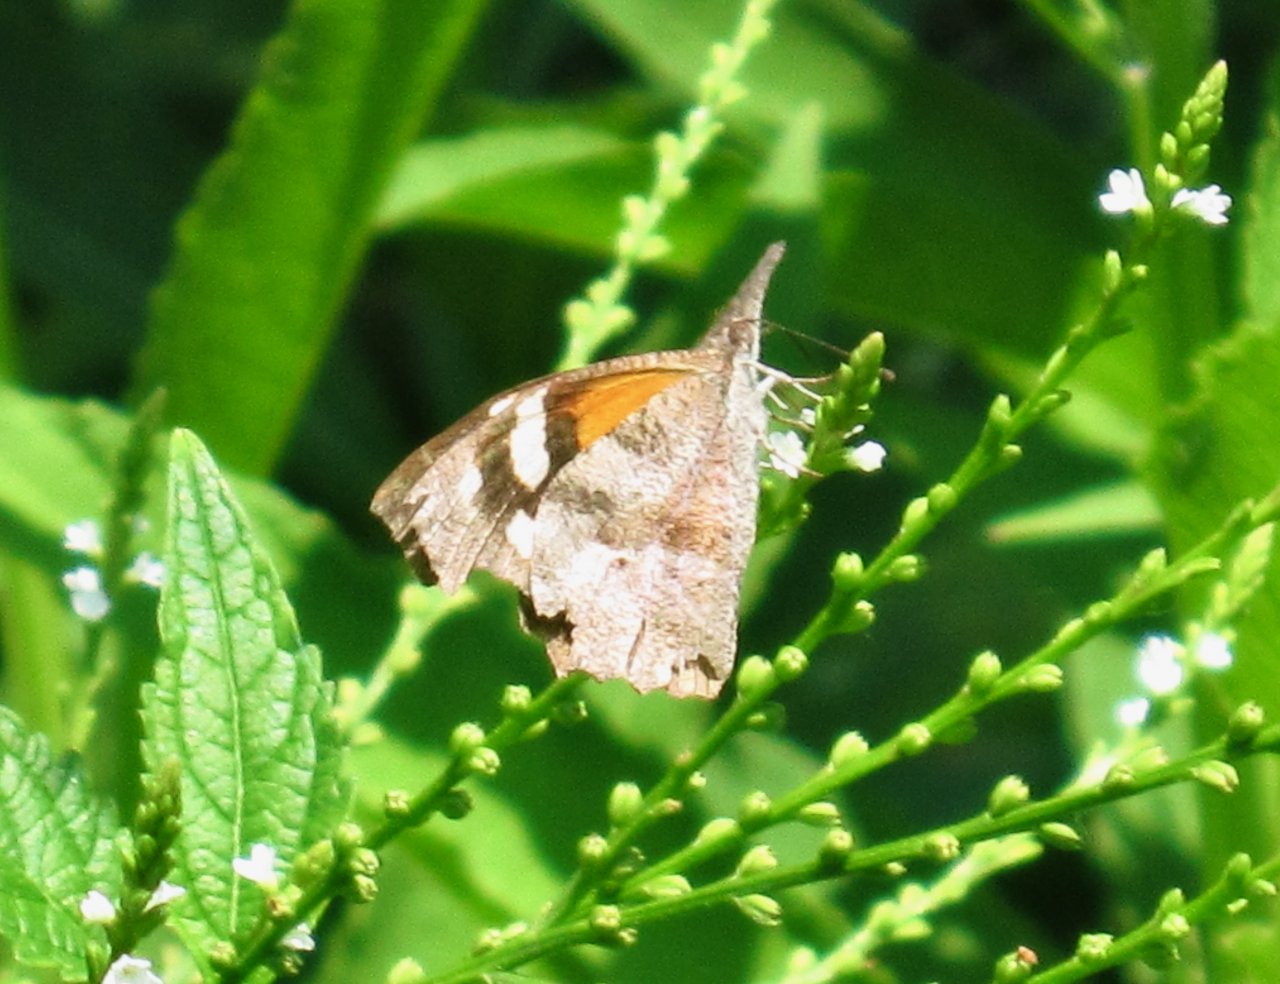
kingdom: Animalia
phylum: Arthropoda
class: Insecta
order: Lepidoptera
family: Nymphalidae
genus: Libytheana
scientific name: Libytheana carinenta
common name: American Snout
